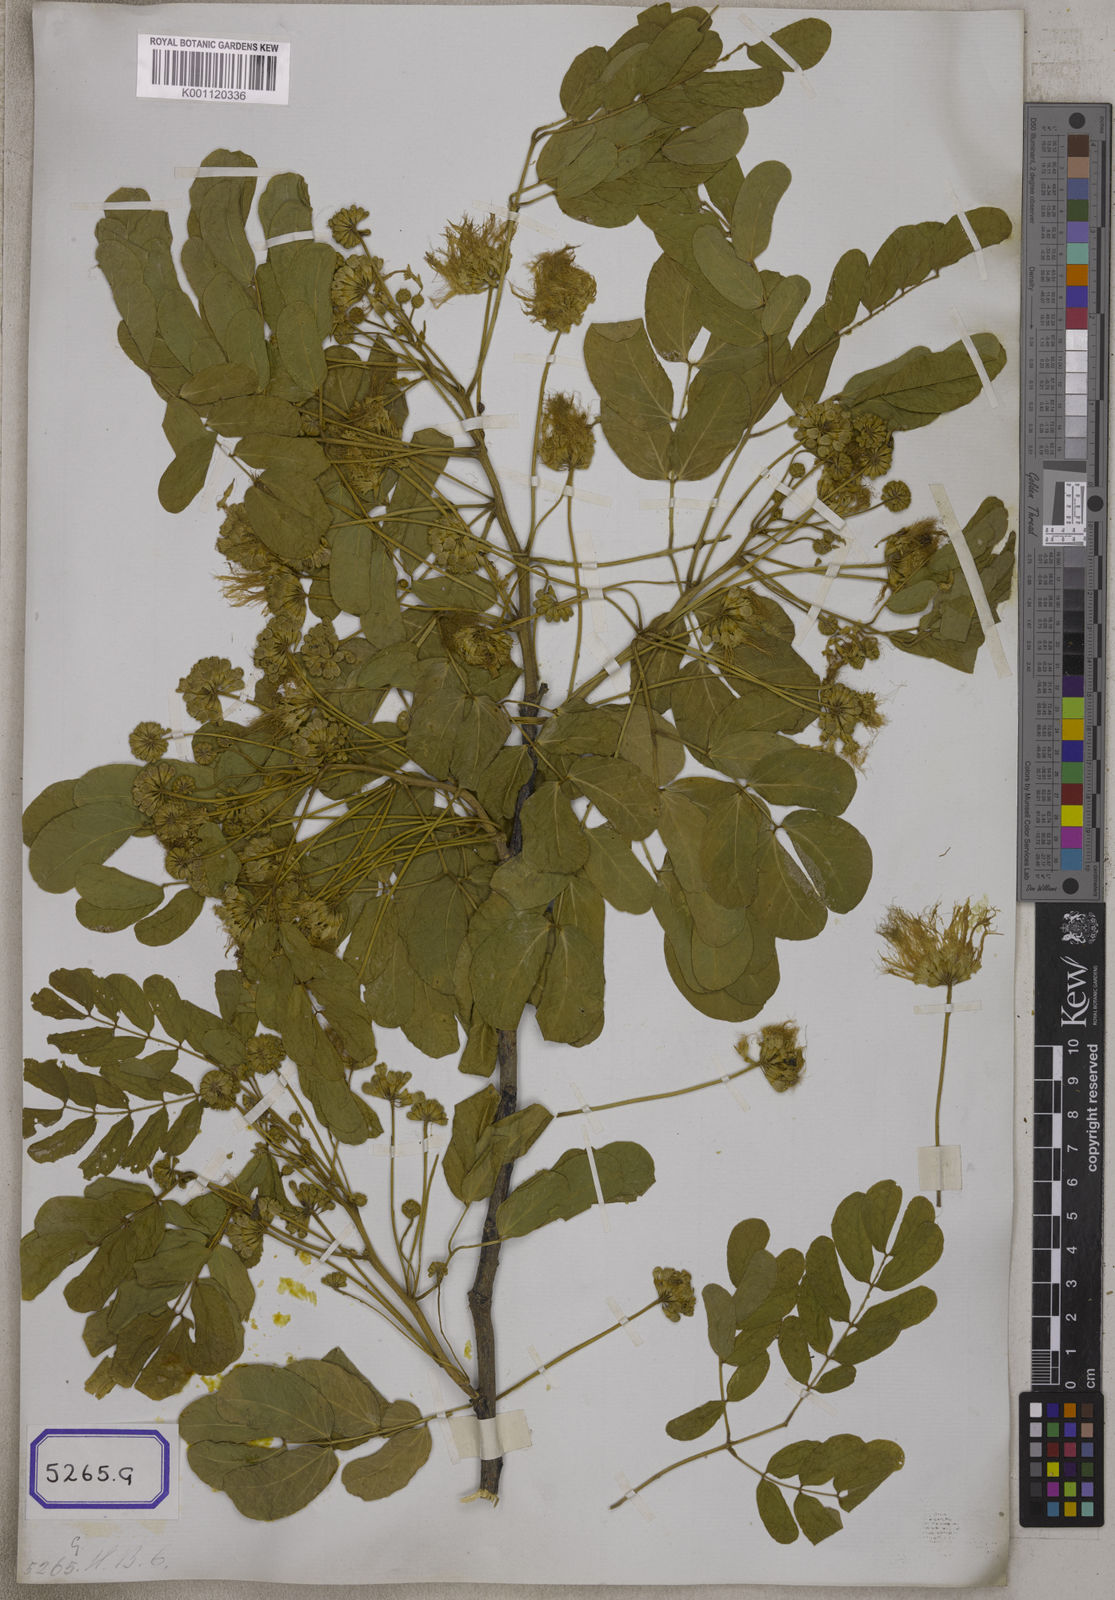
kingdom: Plantae
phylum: Tracheophyta
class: Magnoliopsida
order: Fabales
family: Fabaceae
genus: Acacia
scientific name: Acacia
